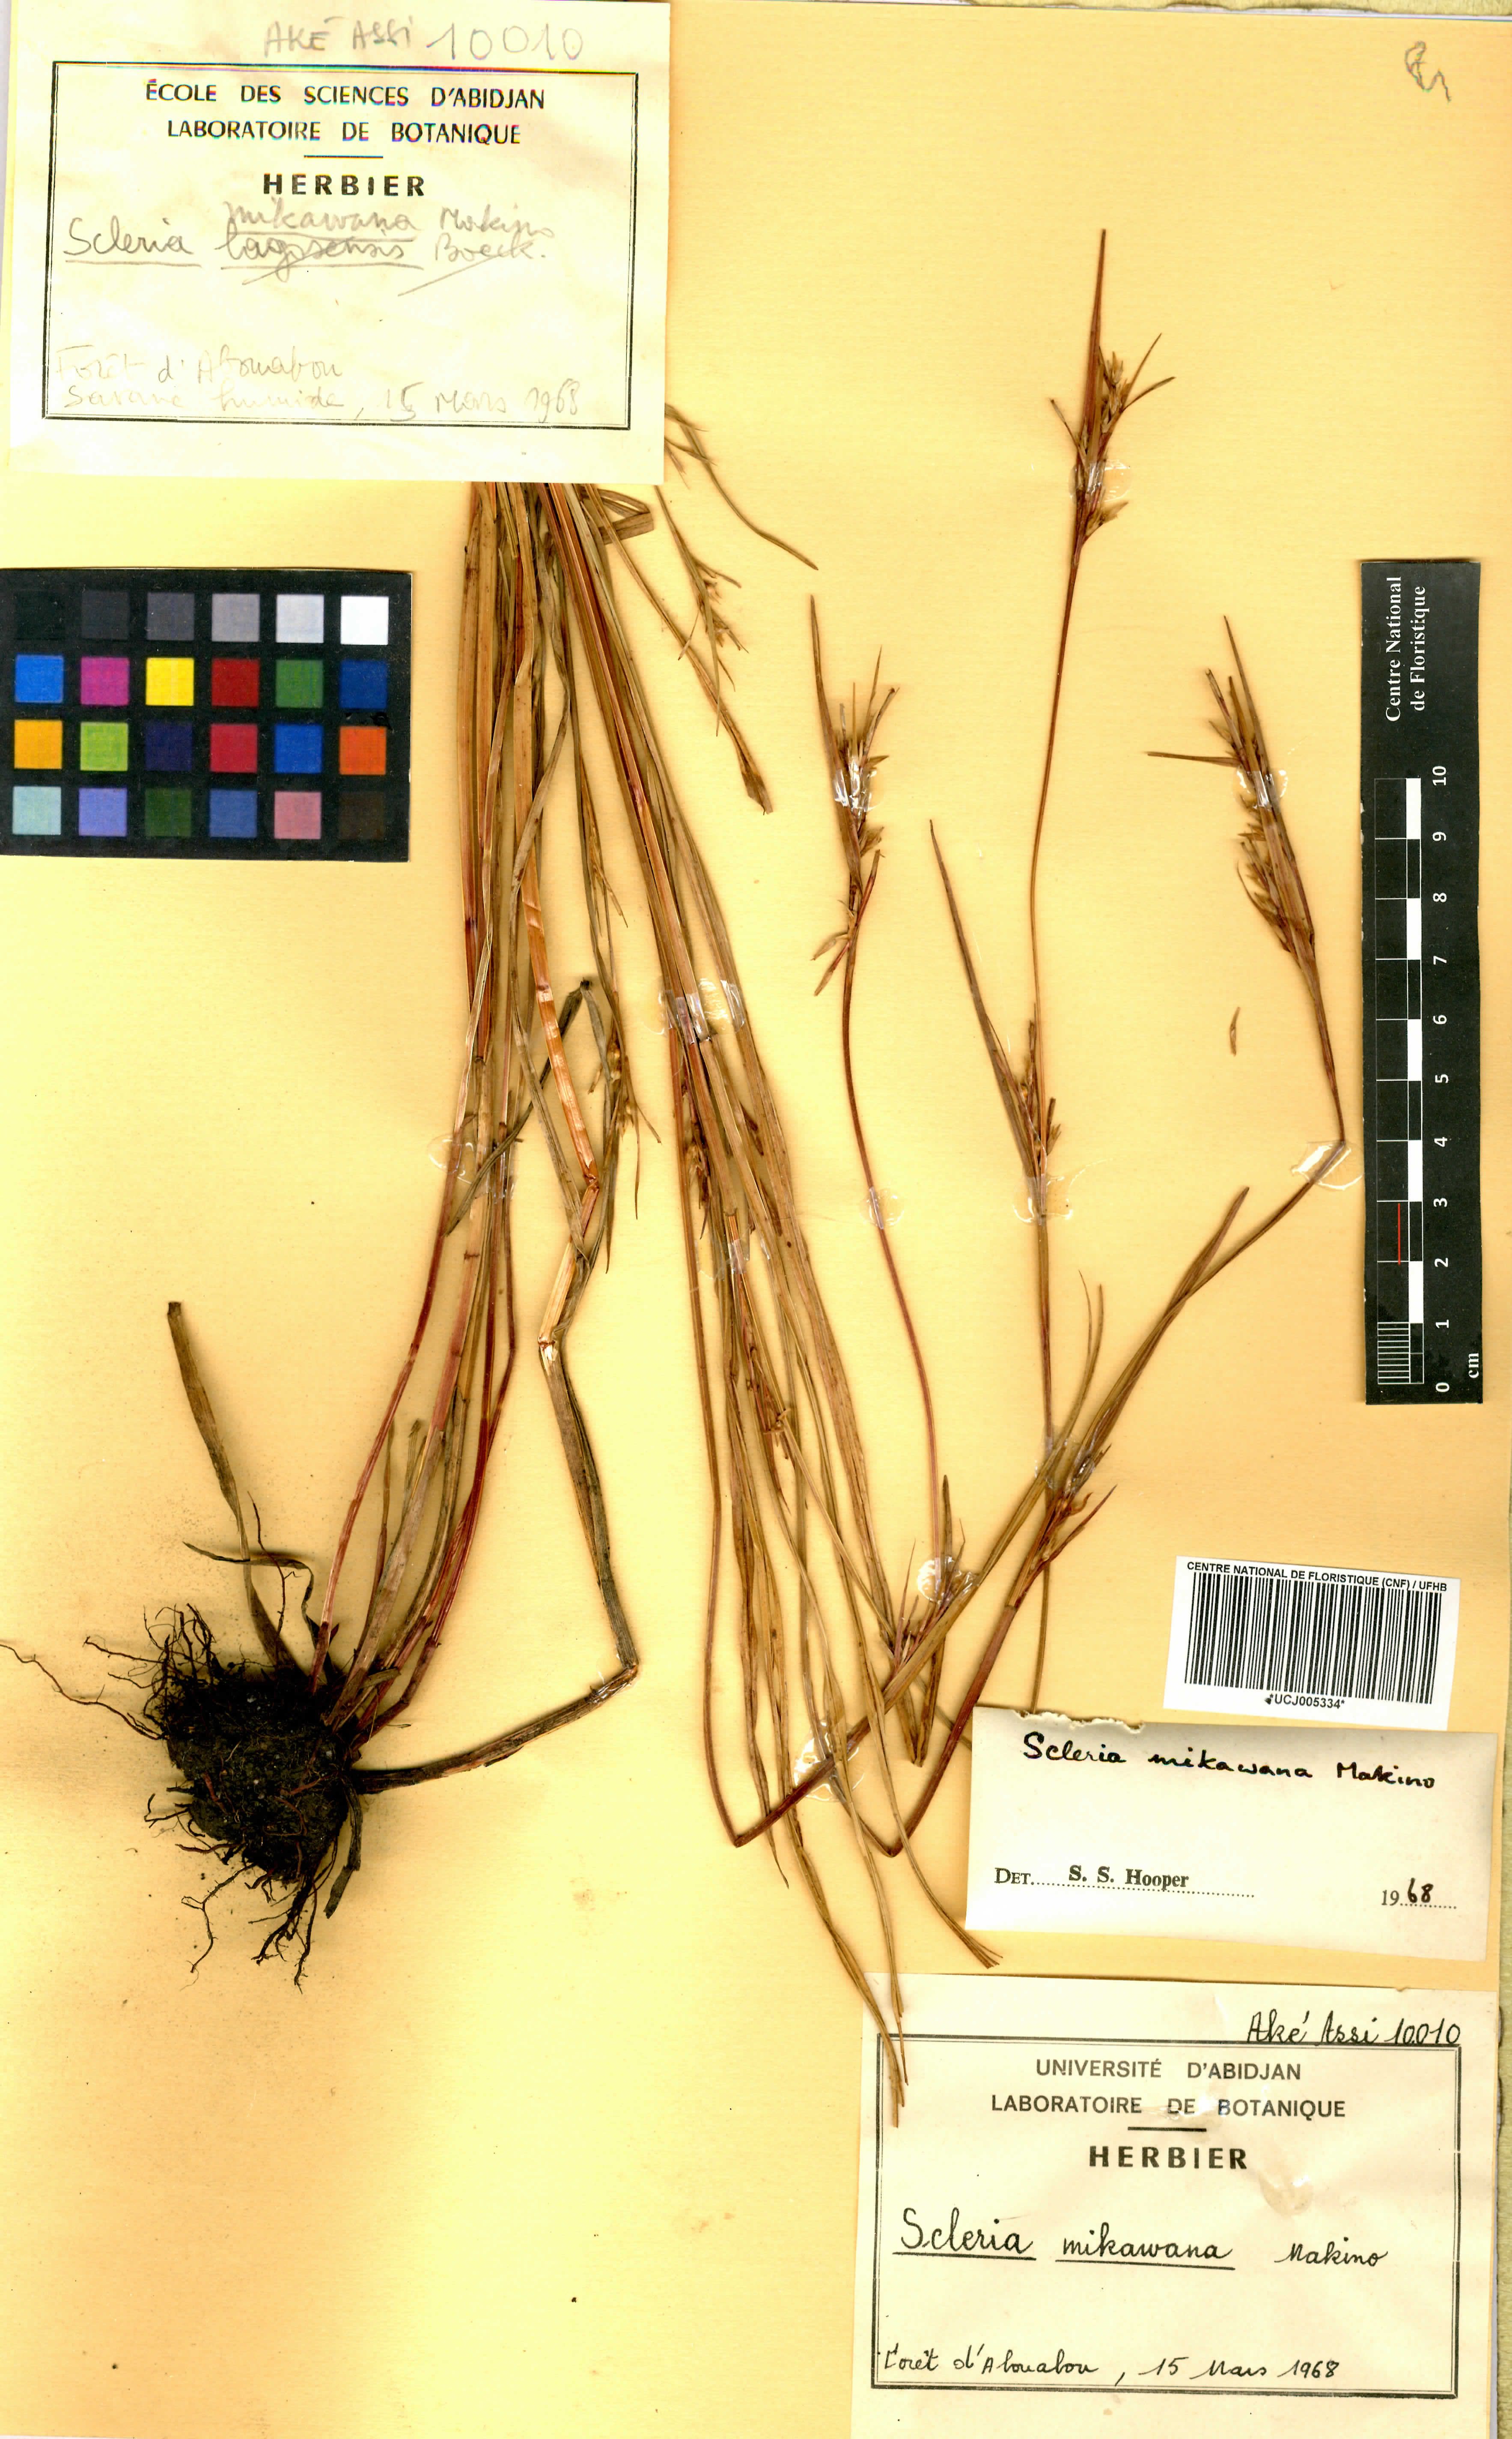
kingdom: Plantae
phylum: Tracheophyta
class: Liliopsida
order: Poales
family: Cyperaceae
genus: Scleria
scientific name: Scleria mikawana
